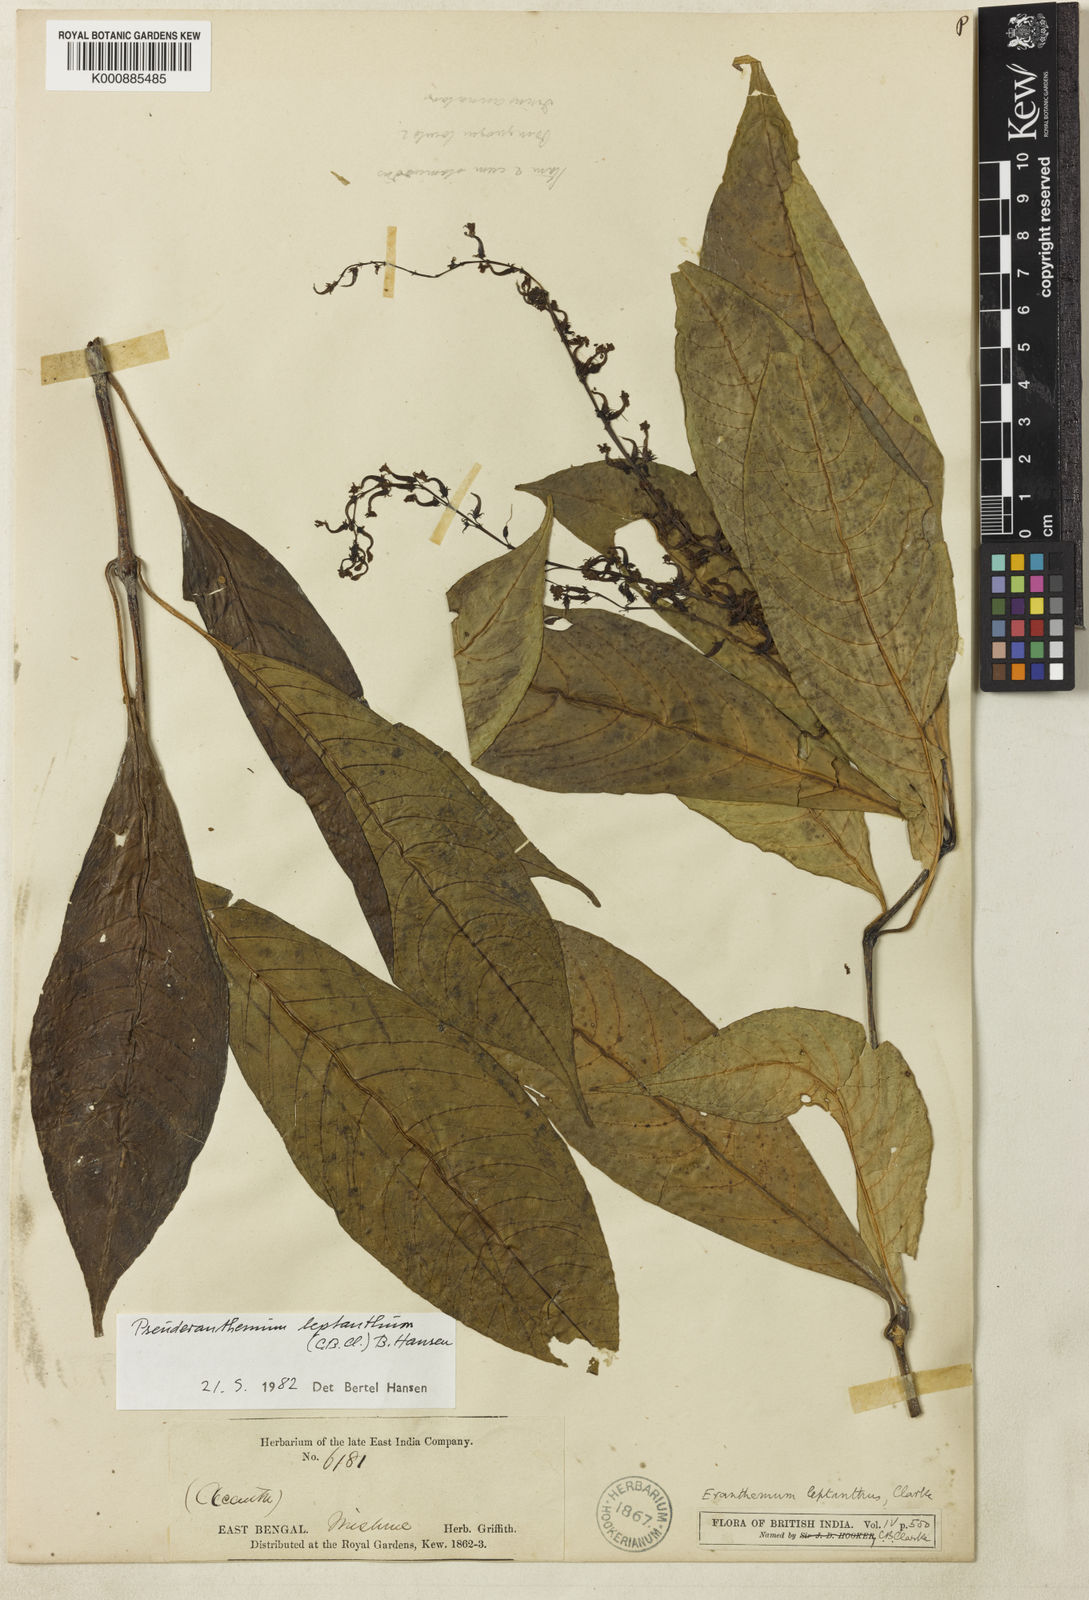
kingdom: Plantae
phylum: Tracheophyta
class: Magnoliopsida
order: Lamiales
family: Acanthaceae
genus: Pseuderanthemum
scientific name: Pseuderanthemum
